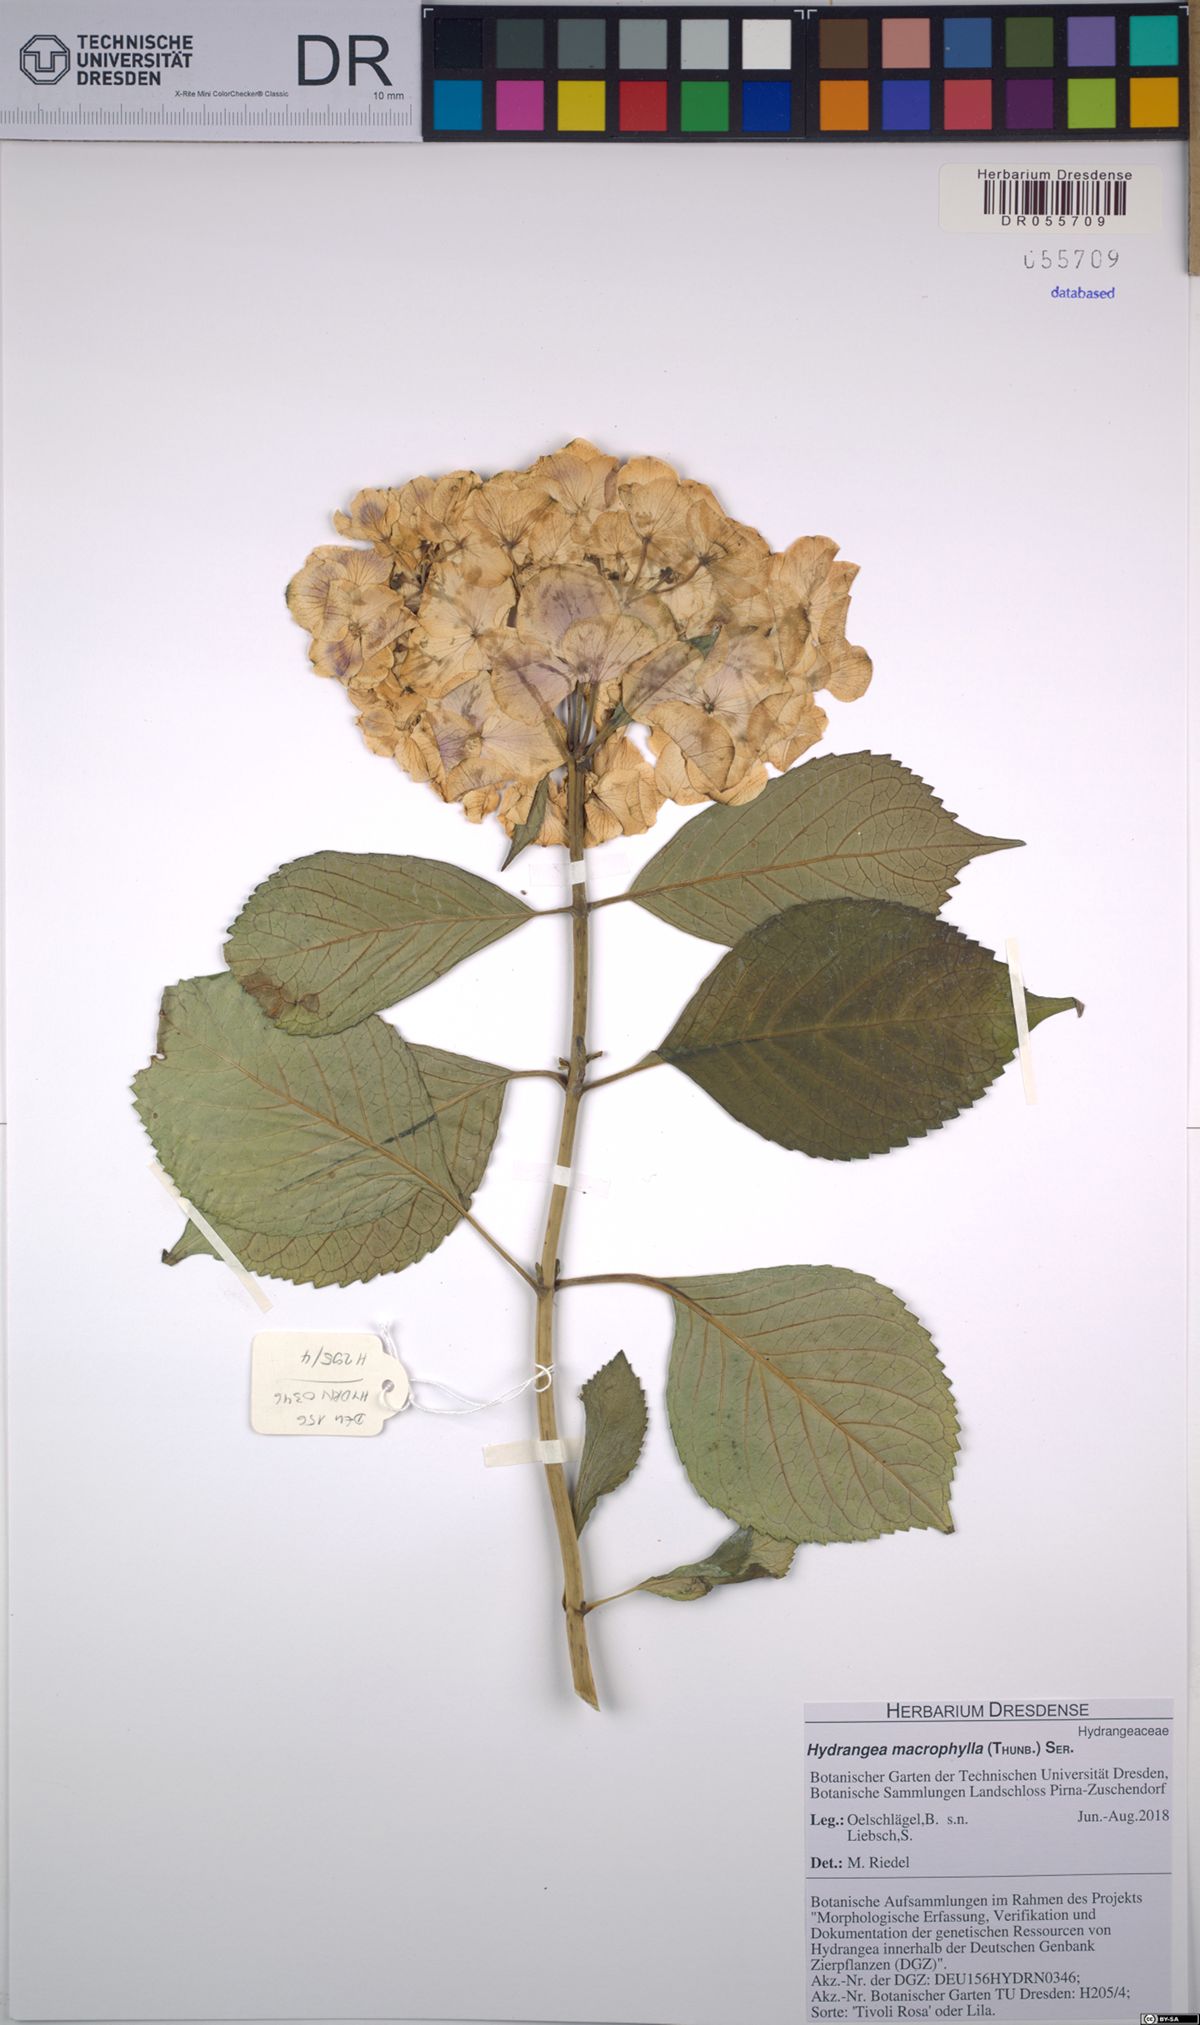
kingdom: Plantae
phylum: Tracheophyta
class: Magnoliopsida
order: Cornales
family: Hydrangeaceae
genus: Hydrangea
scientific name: Hydrangea macrophylla
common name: Hydrangea
